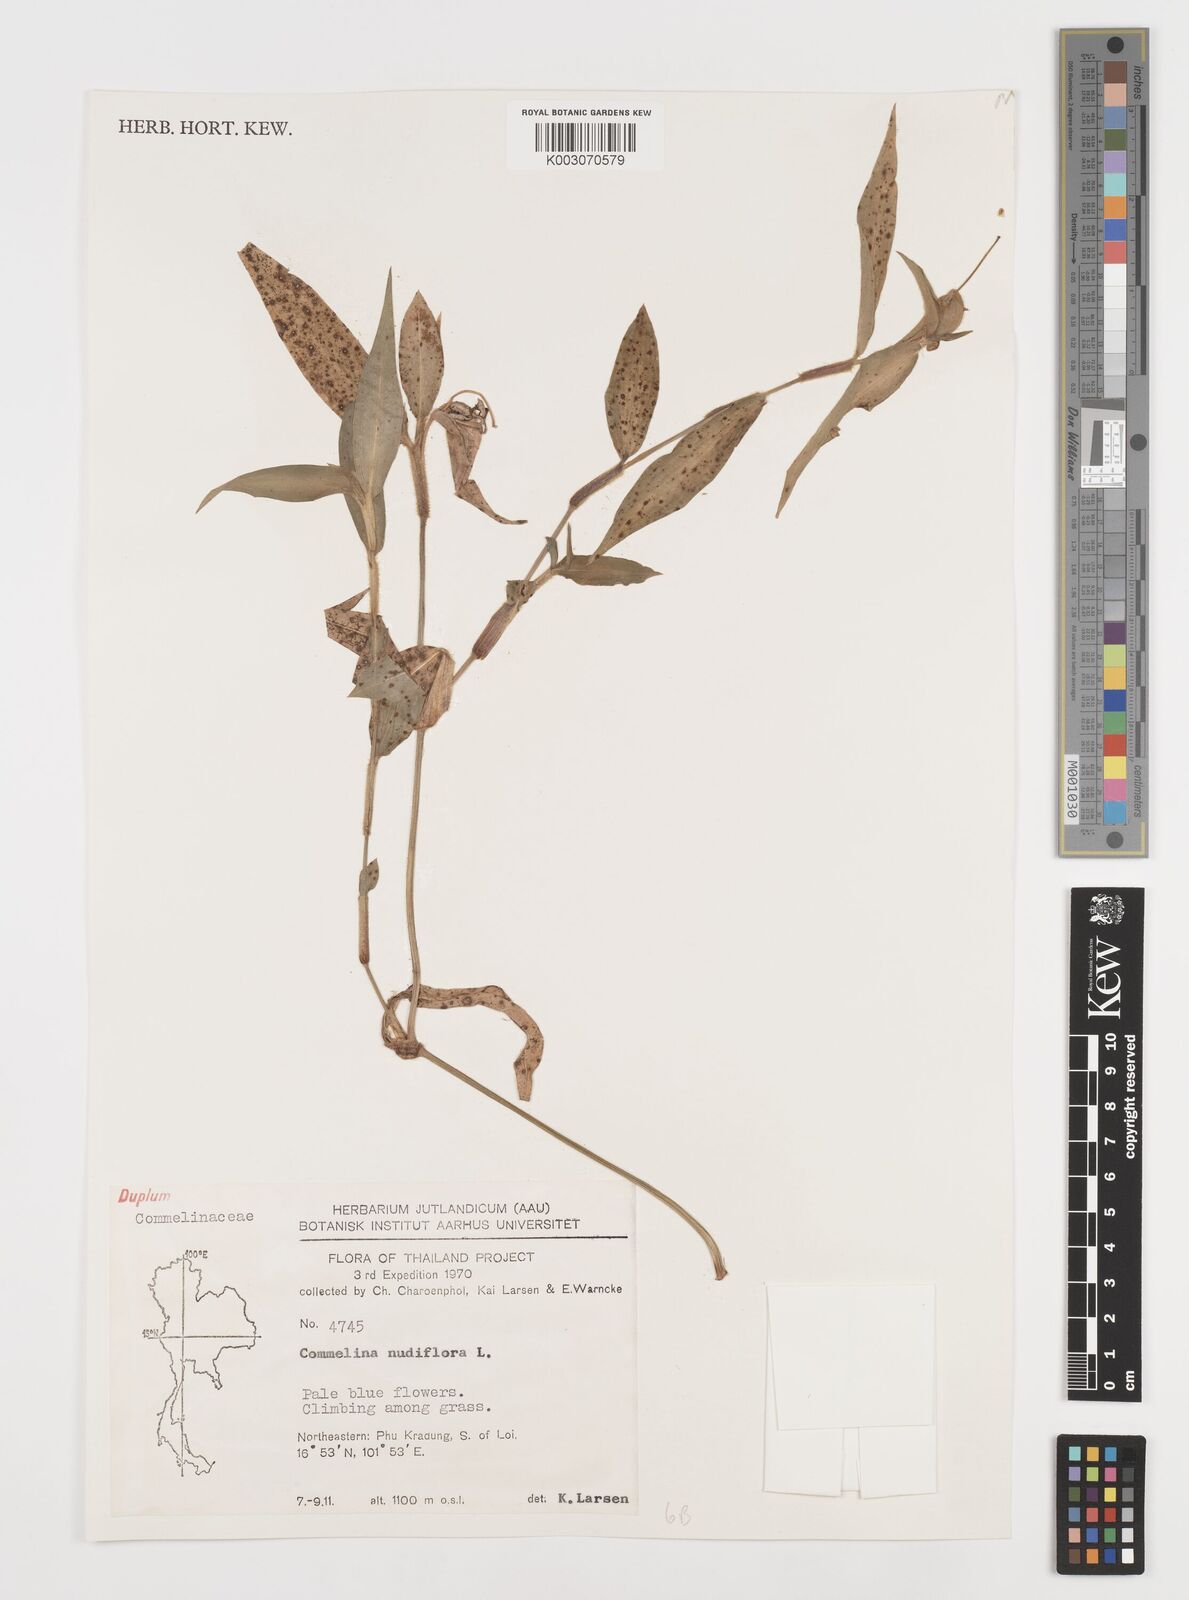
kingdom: Plantae
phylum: Tracheophyta
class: Liliopsida
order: Commelinales
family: Commelinaceae
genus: Commelina
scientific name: Commelina clavata
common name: Willow leaved dayflower
